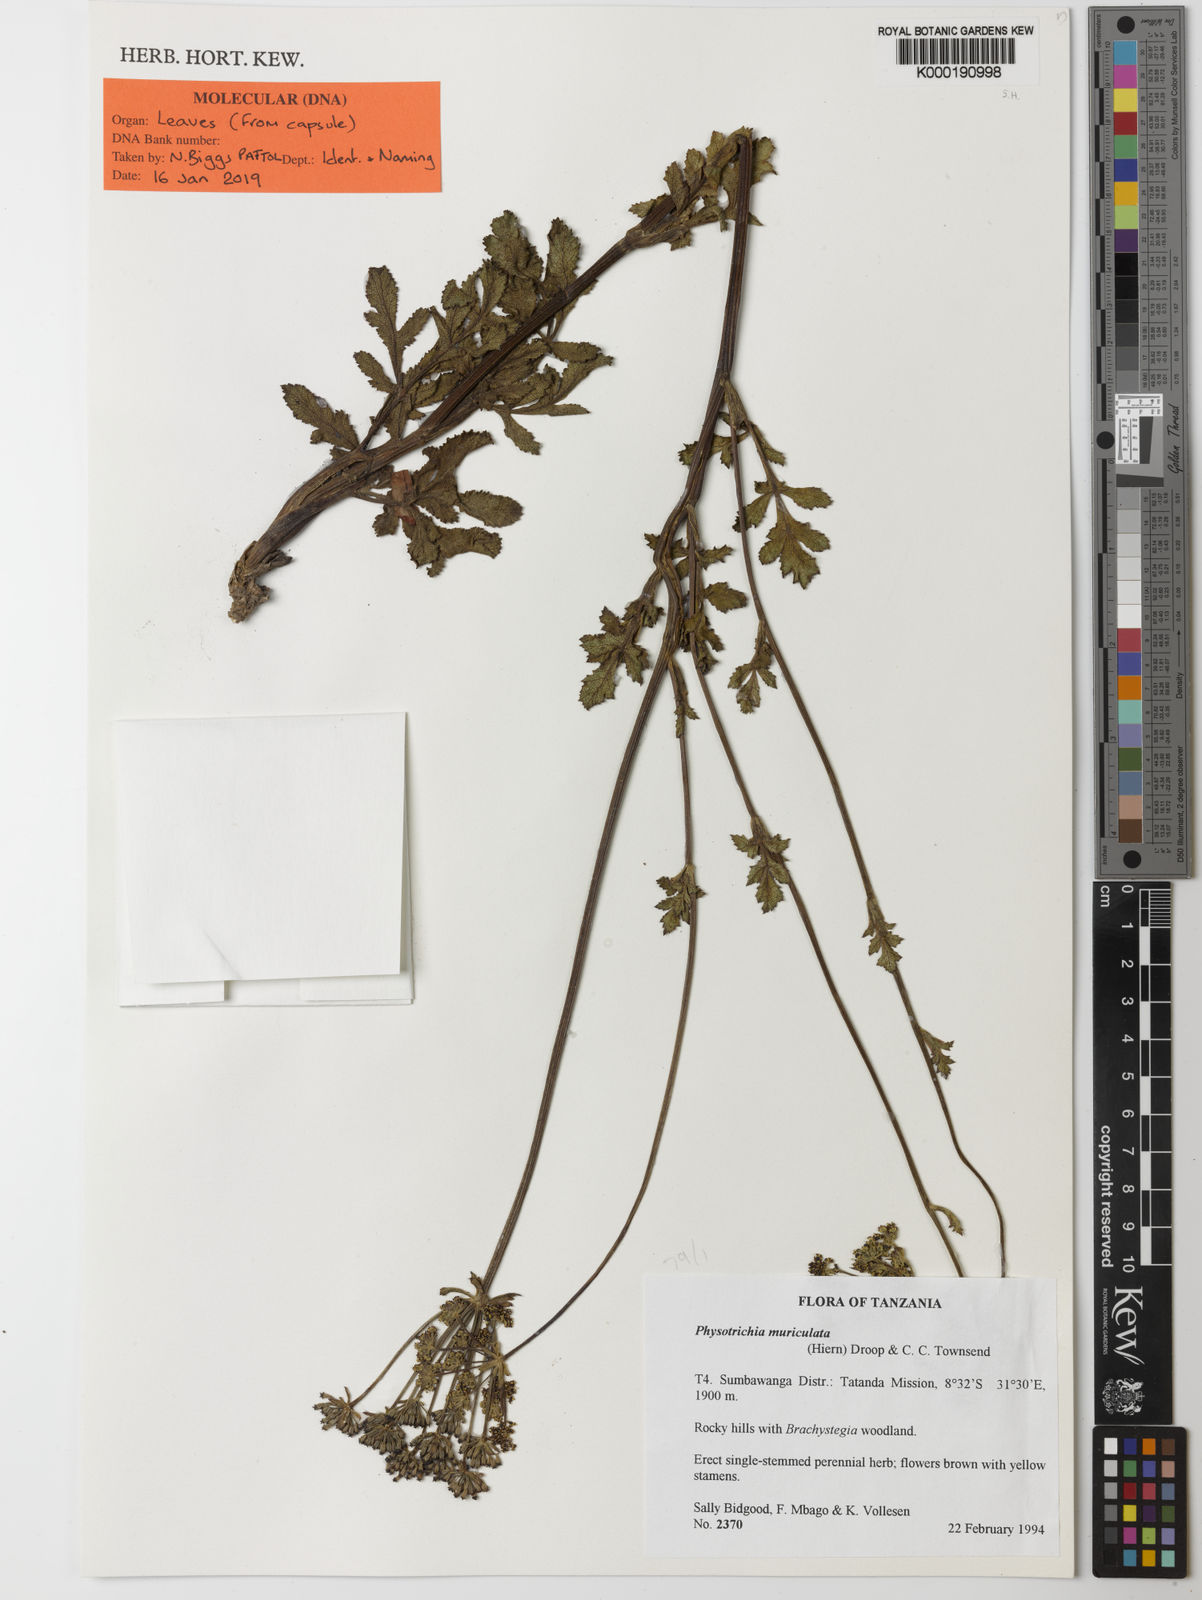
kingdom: Plantae
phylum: Tracheophyta
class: Magnoliopsida
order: Apiales
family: Apiaceae
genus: Physotrichia
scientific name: Physotrichia muriculata
